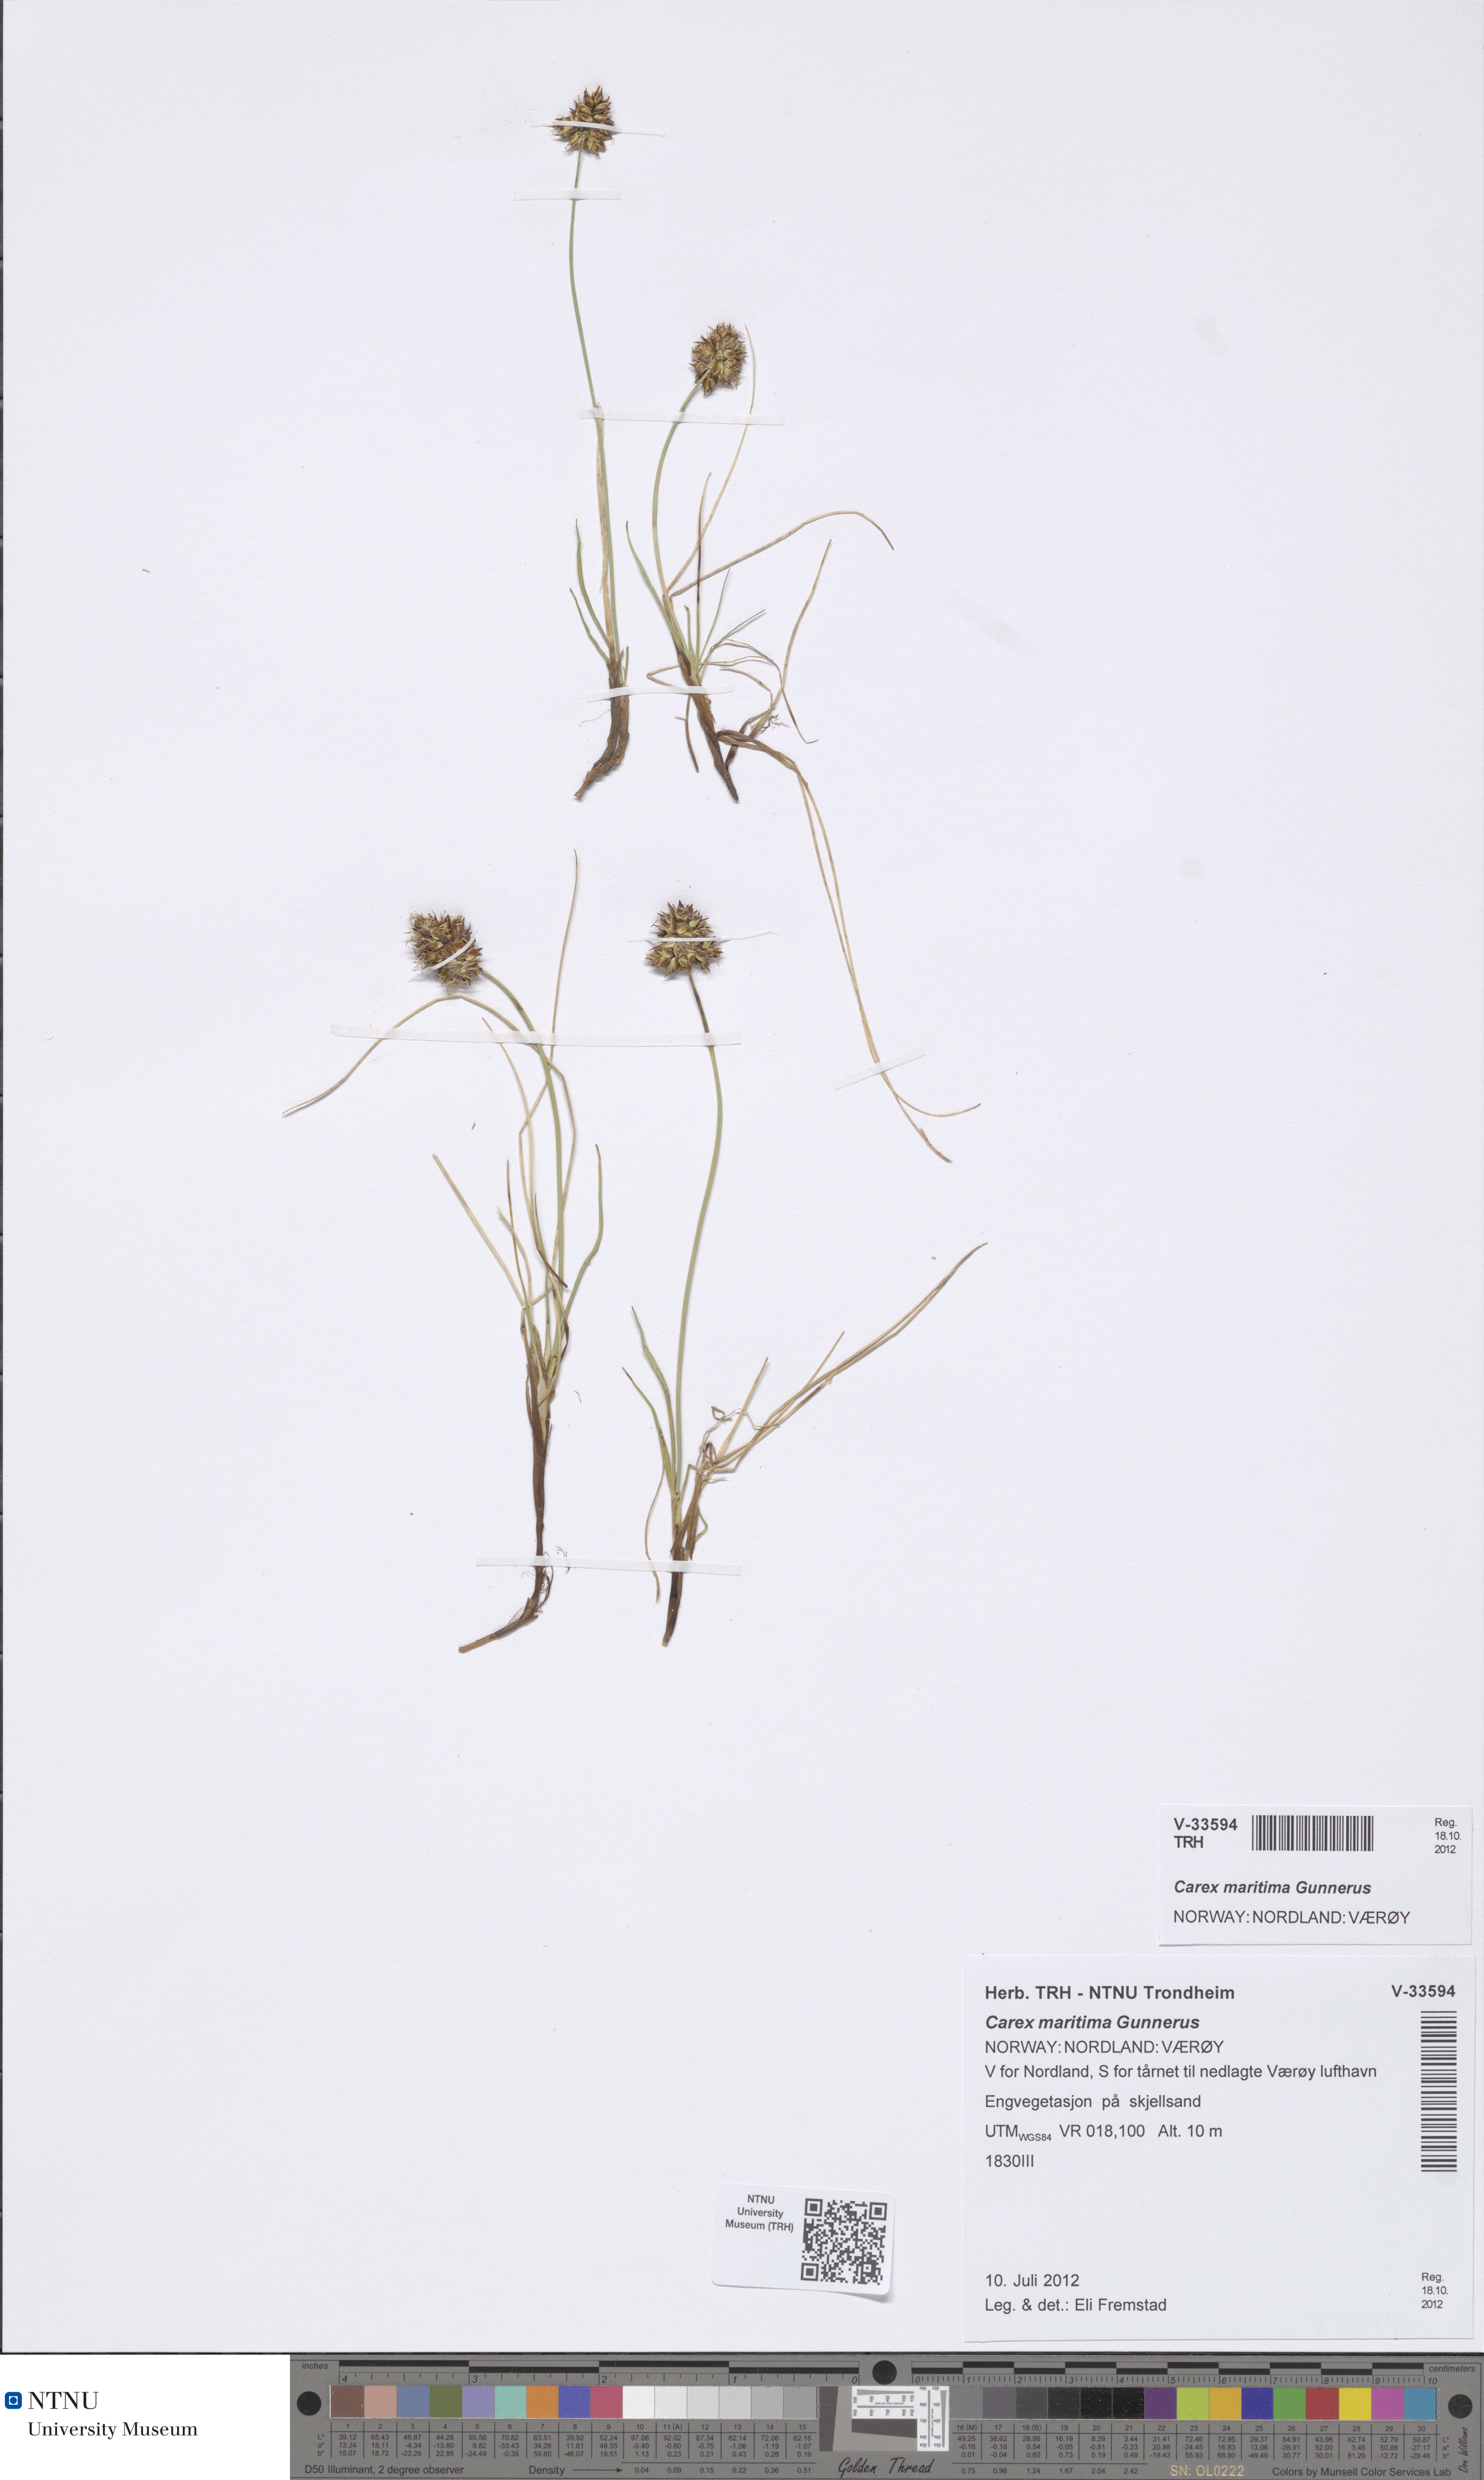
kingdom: Plantae
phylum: Tracheophyta
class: Liliopsida
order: Poales
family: Cyperaceae
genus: Carex
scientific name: Carex maritima
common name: Curved sedge
